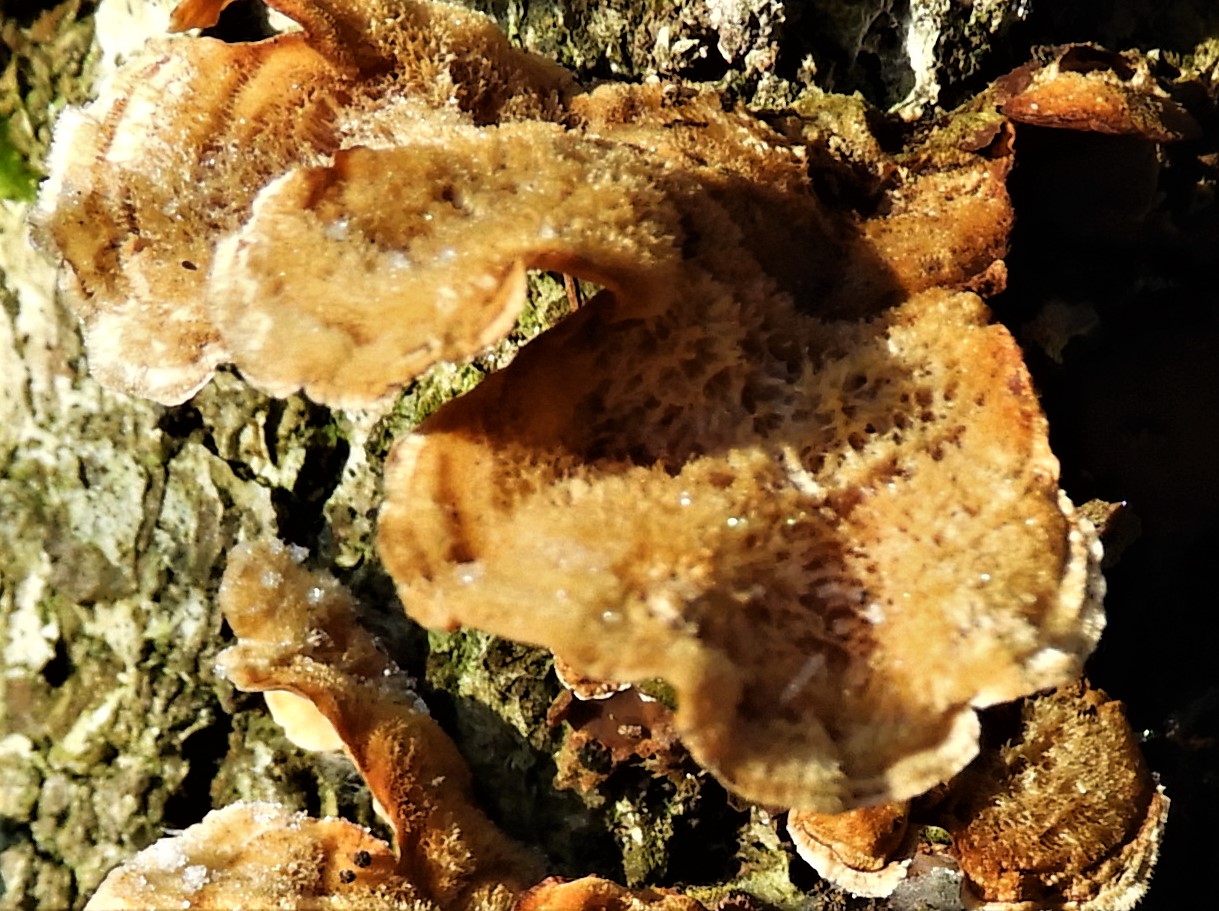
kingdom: Fungi
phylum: Basidiomycota
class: Agaricomycetes
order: Russulales
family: Stereaceae
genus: Stereum
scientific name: Stereum hirsutum
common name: håret lædersvamp
